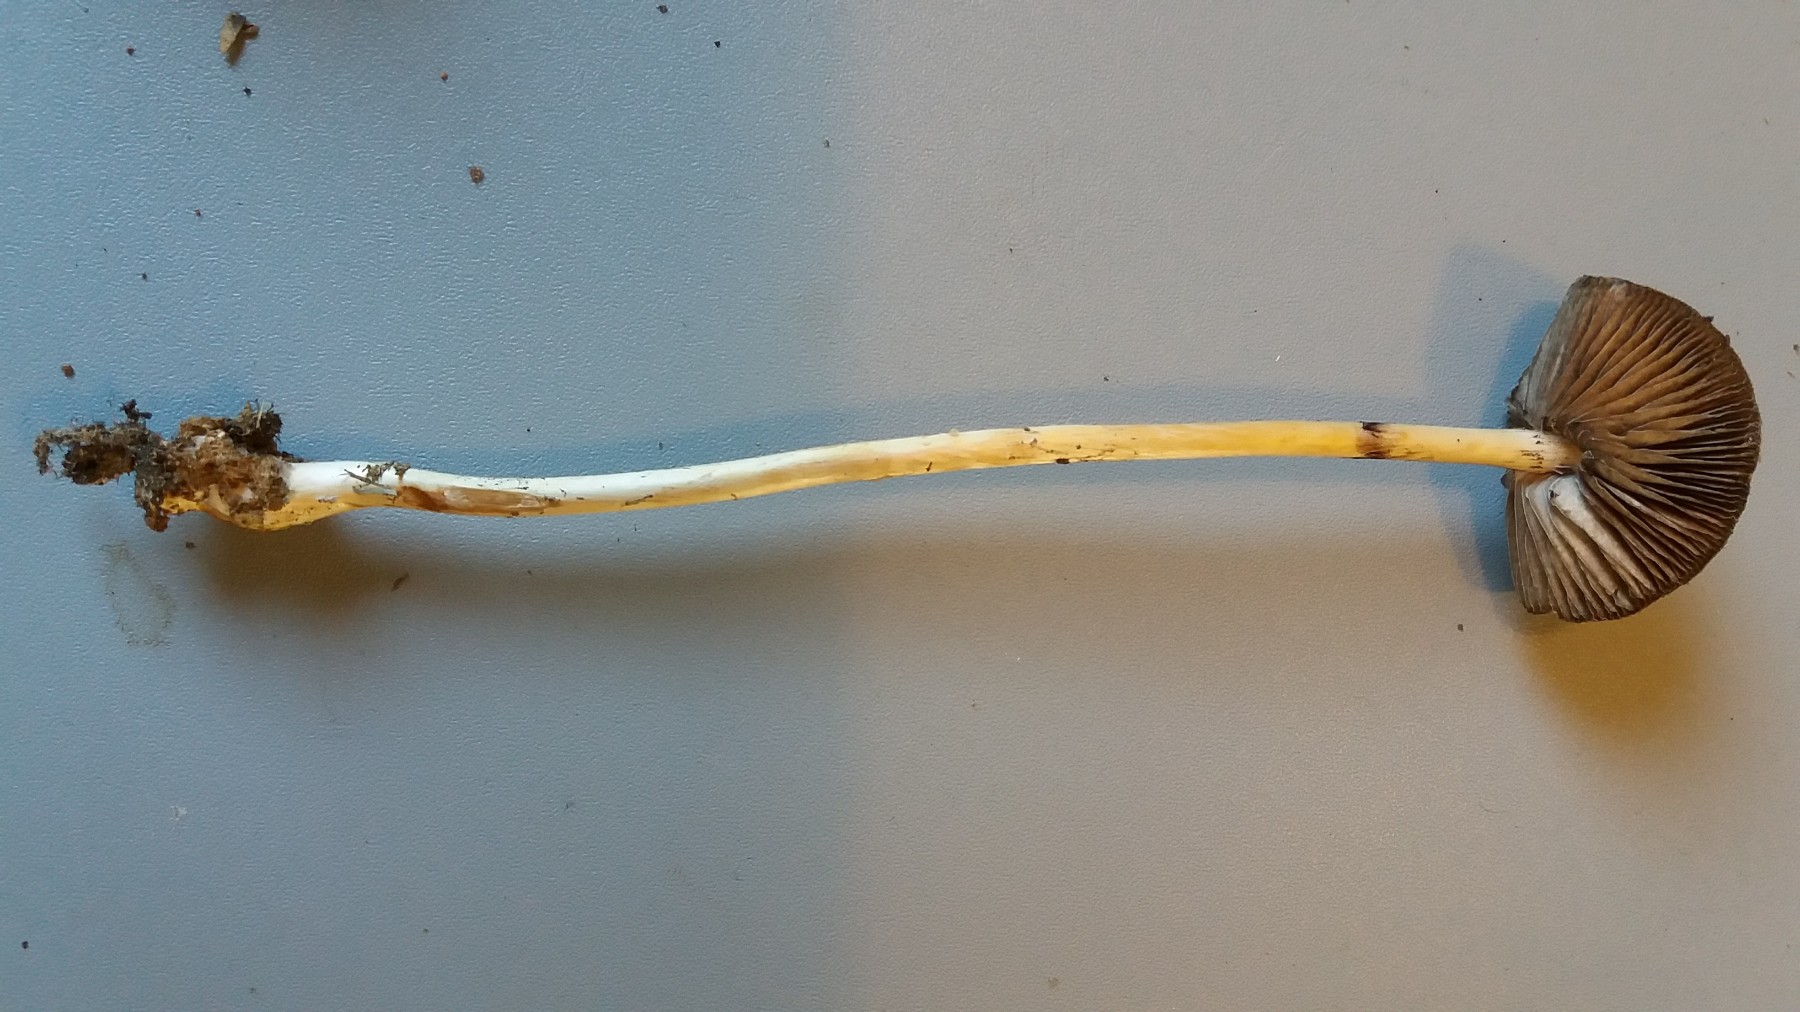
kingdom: Fungi
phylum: Basidiomycota
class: Agaricomycetes
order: Agaricales
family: Strophariaceae
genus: Protostropharia
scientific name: Protostropharia semiglobata
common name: halvkugleformet bredblad
